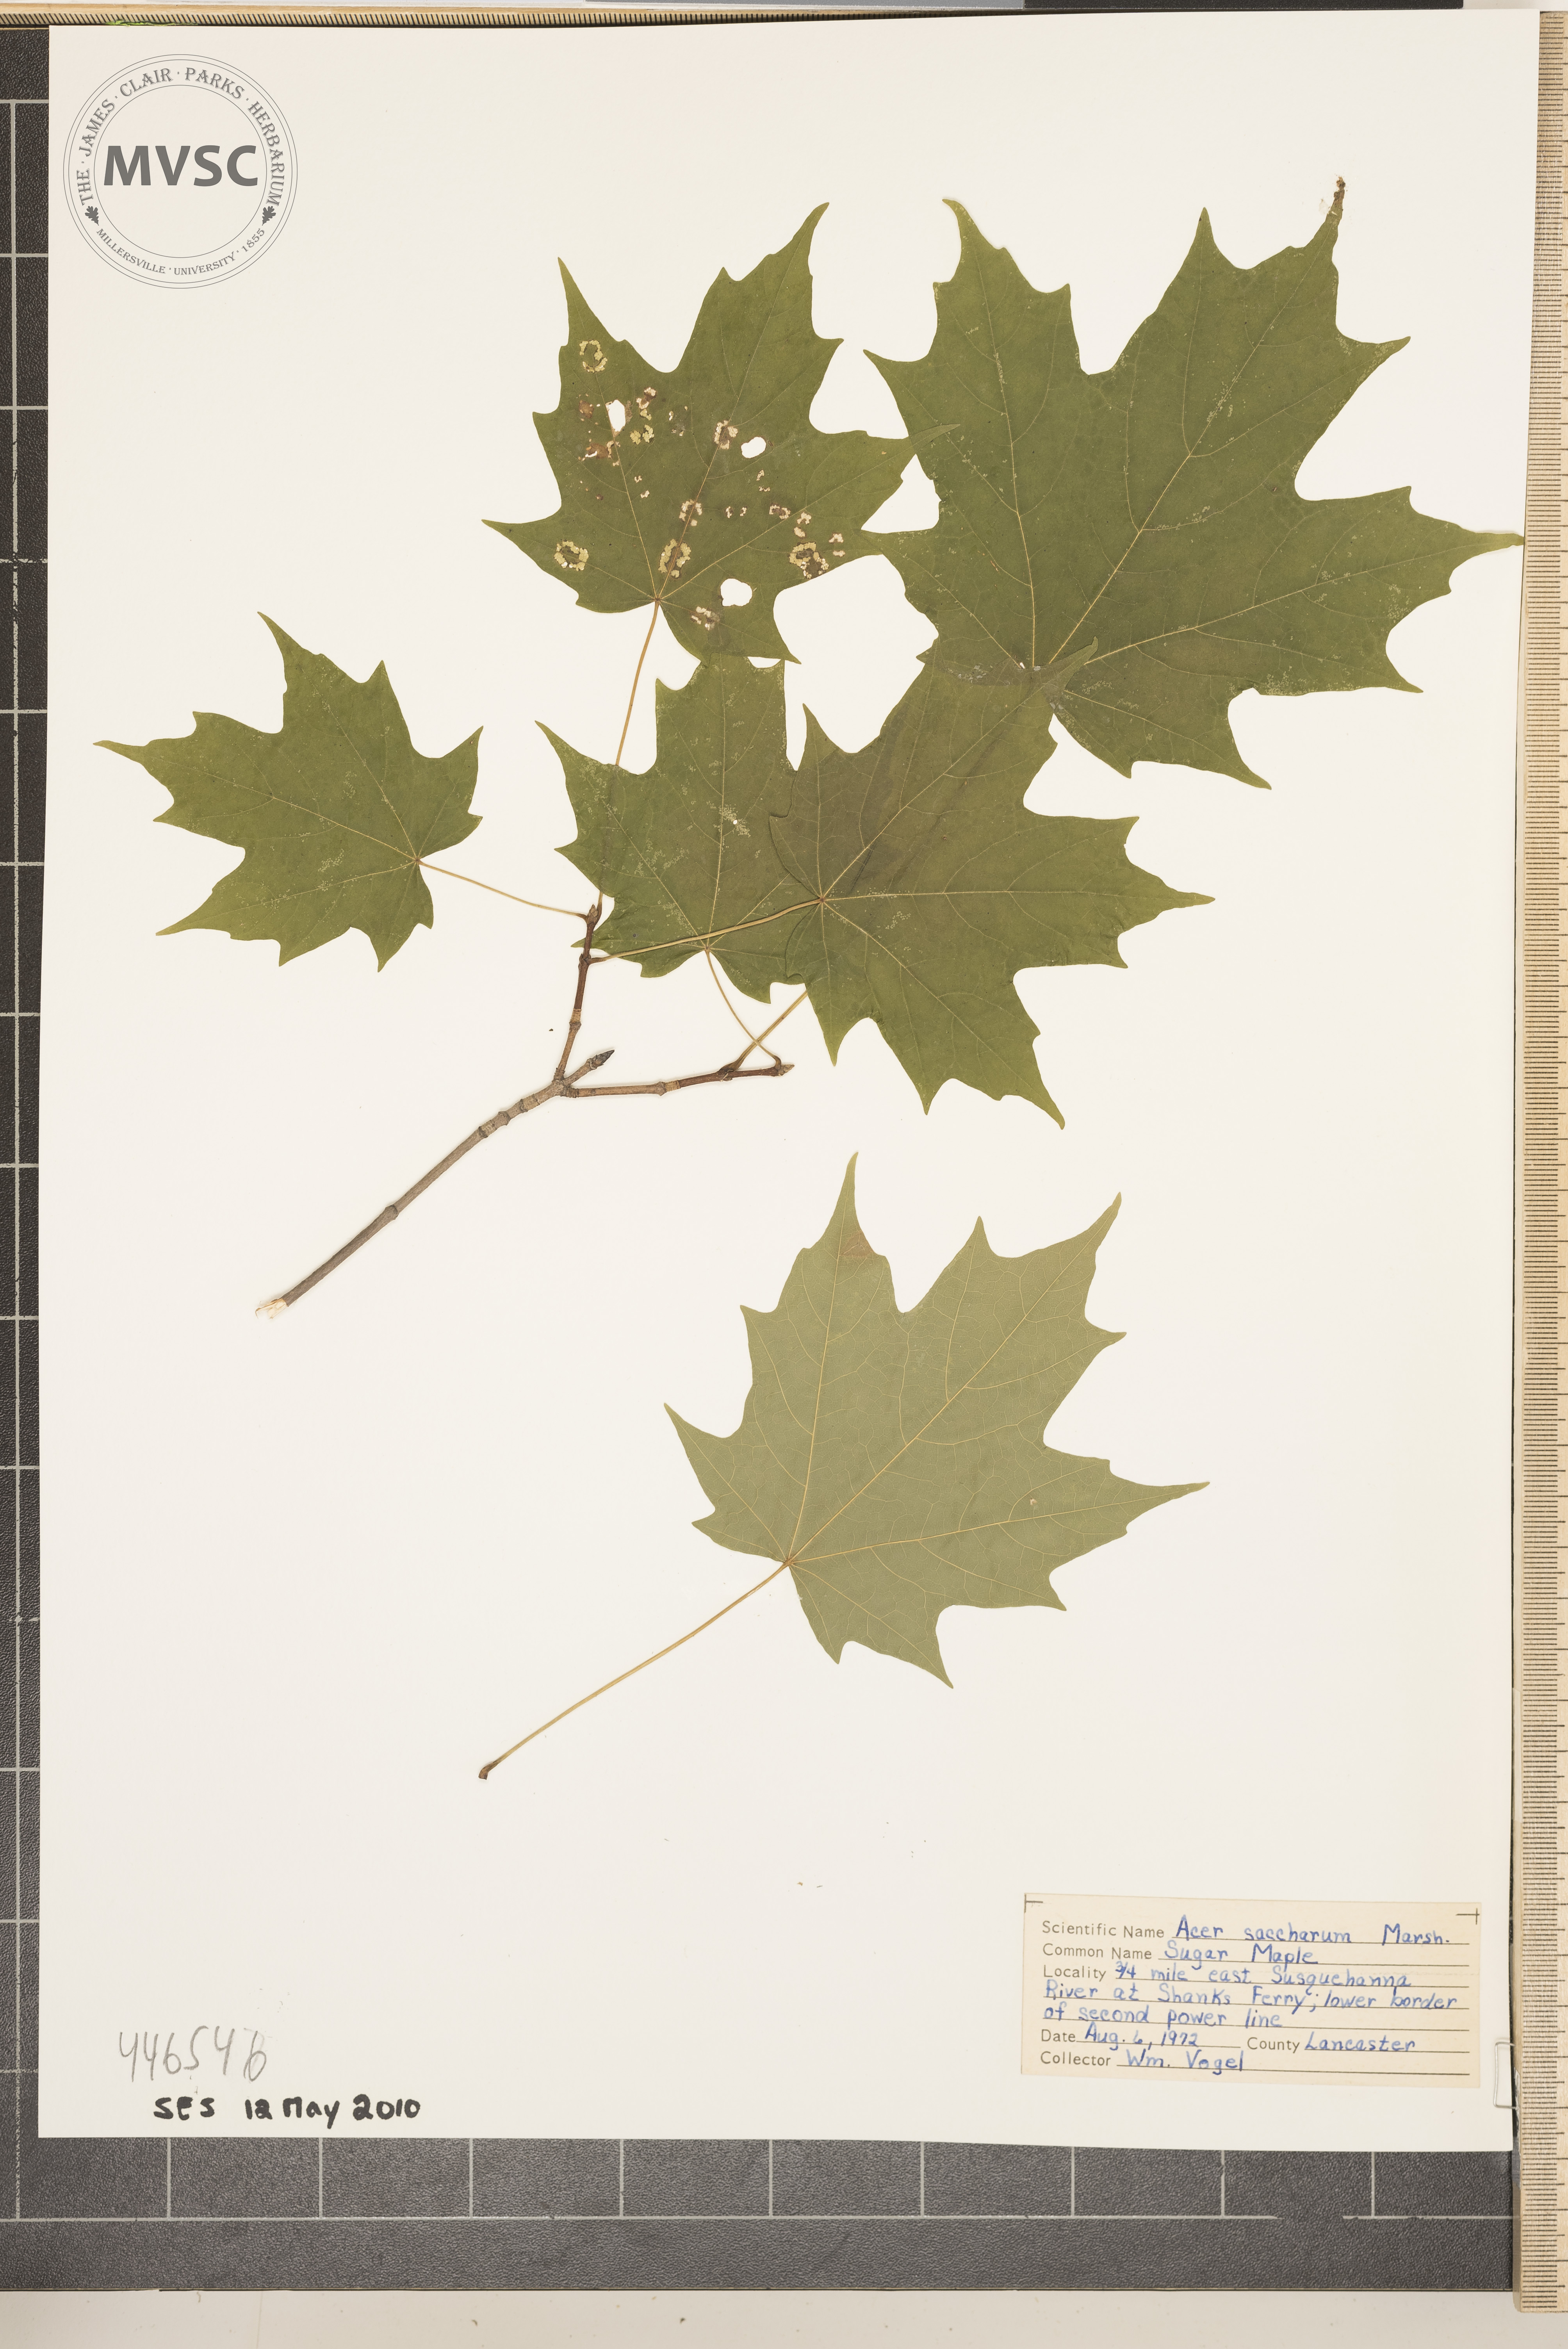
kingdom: Plantae
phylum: Tracheophyta
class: Magnoliopsida
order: Sapindales
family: Sapindaceae
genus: Acer
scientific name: Acer saccharum
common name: sugar maple
